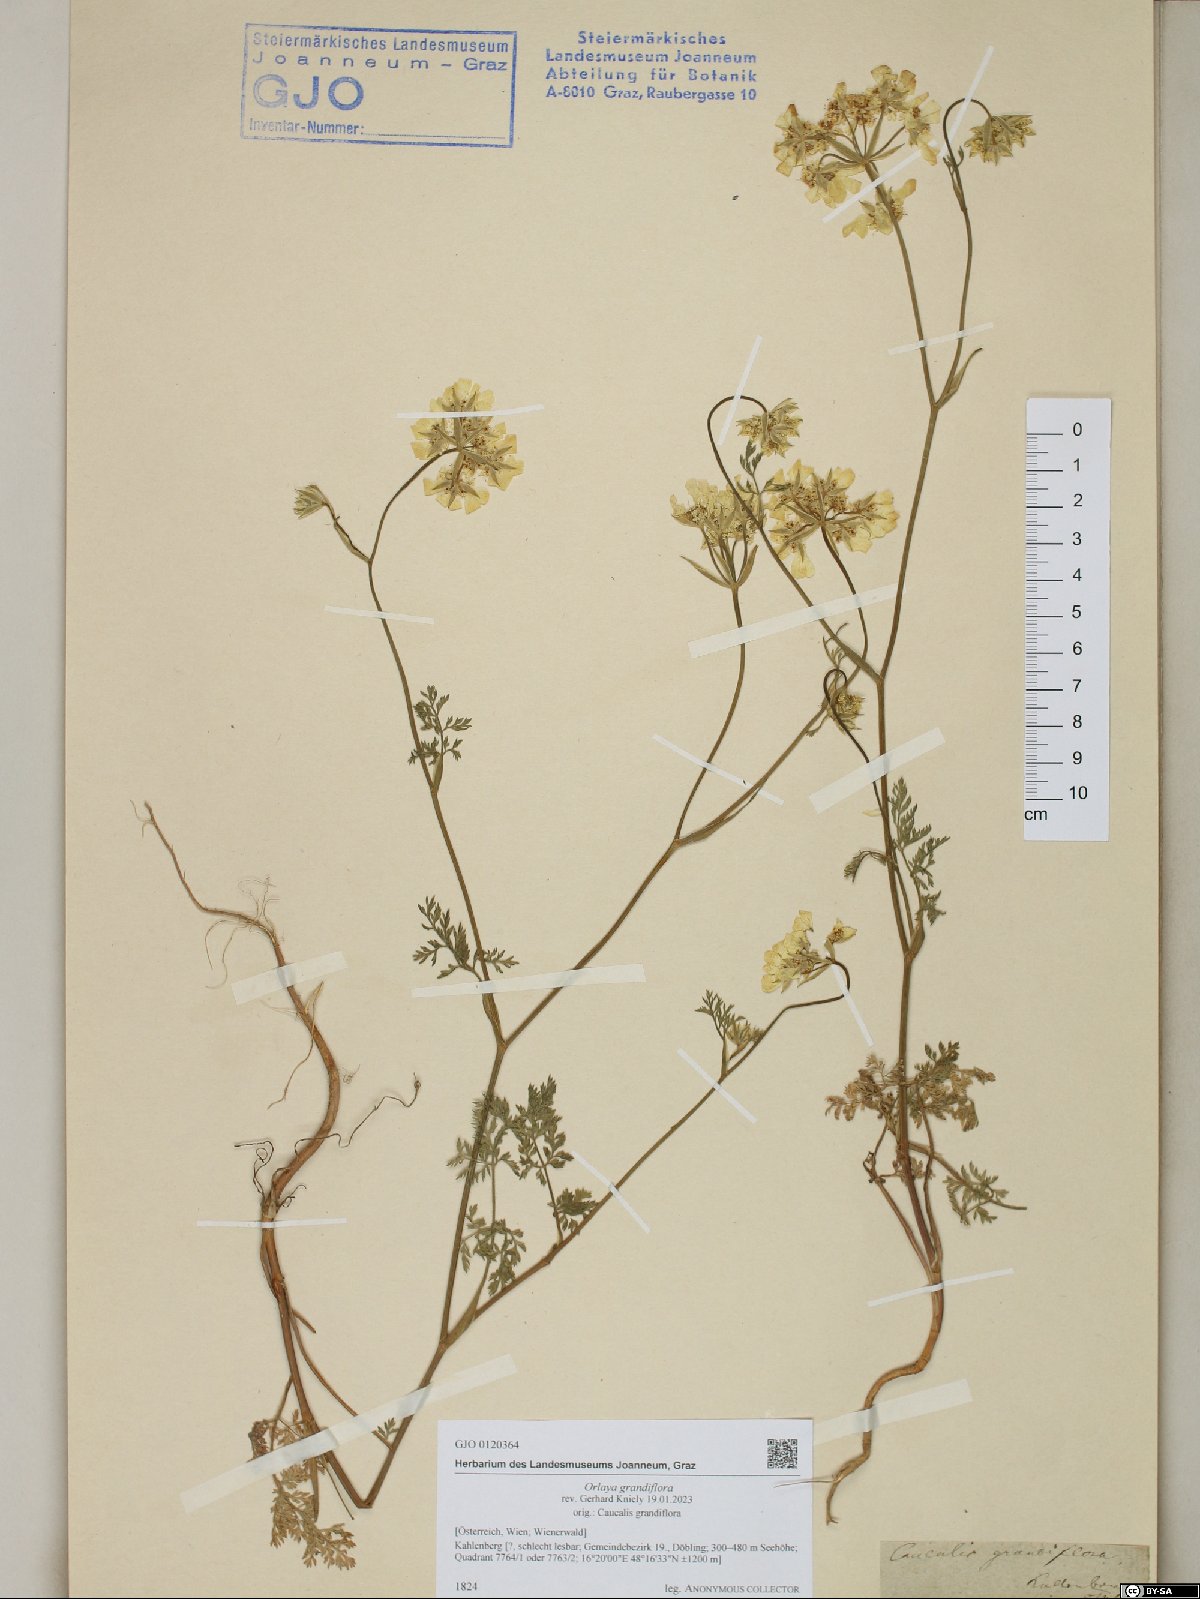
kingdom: Plantae
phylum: Tracheophyta
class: Magnoliopsida
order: Apiales
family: Apiaceae
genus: Orlaya
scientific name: Orlaya grandiflora
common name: White lace flower
